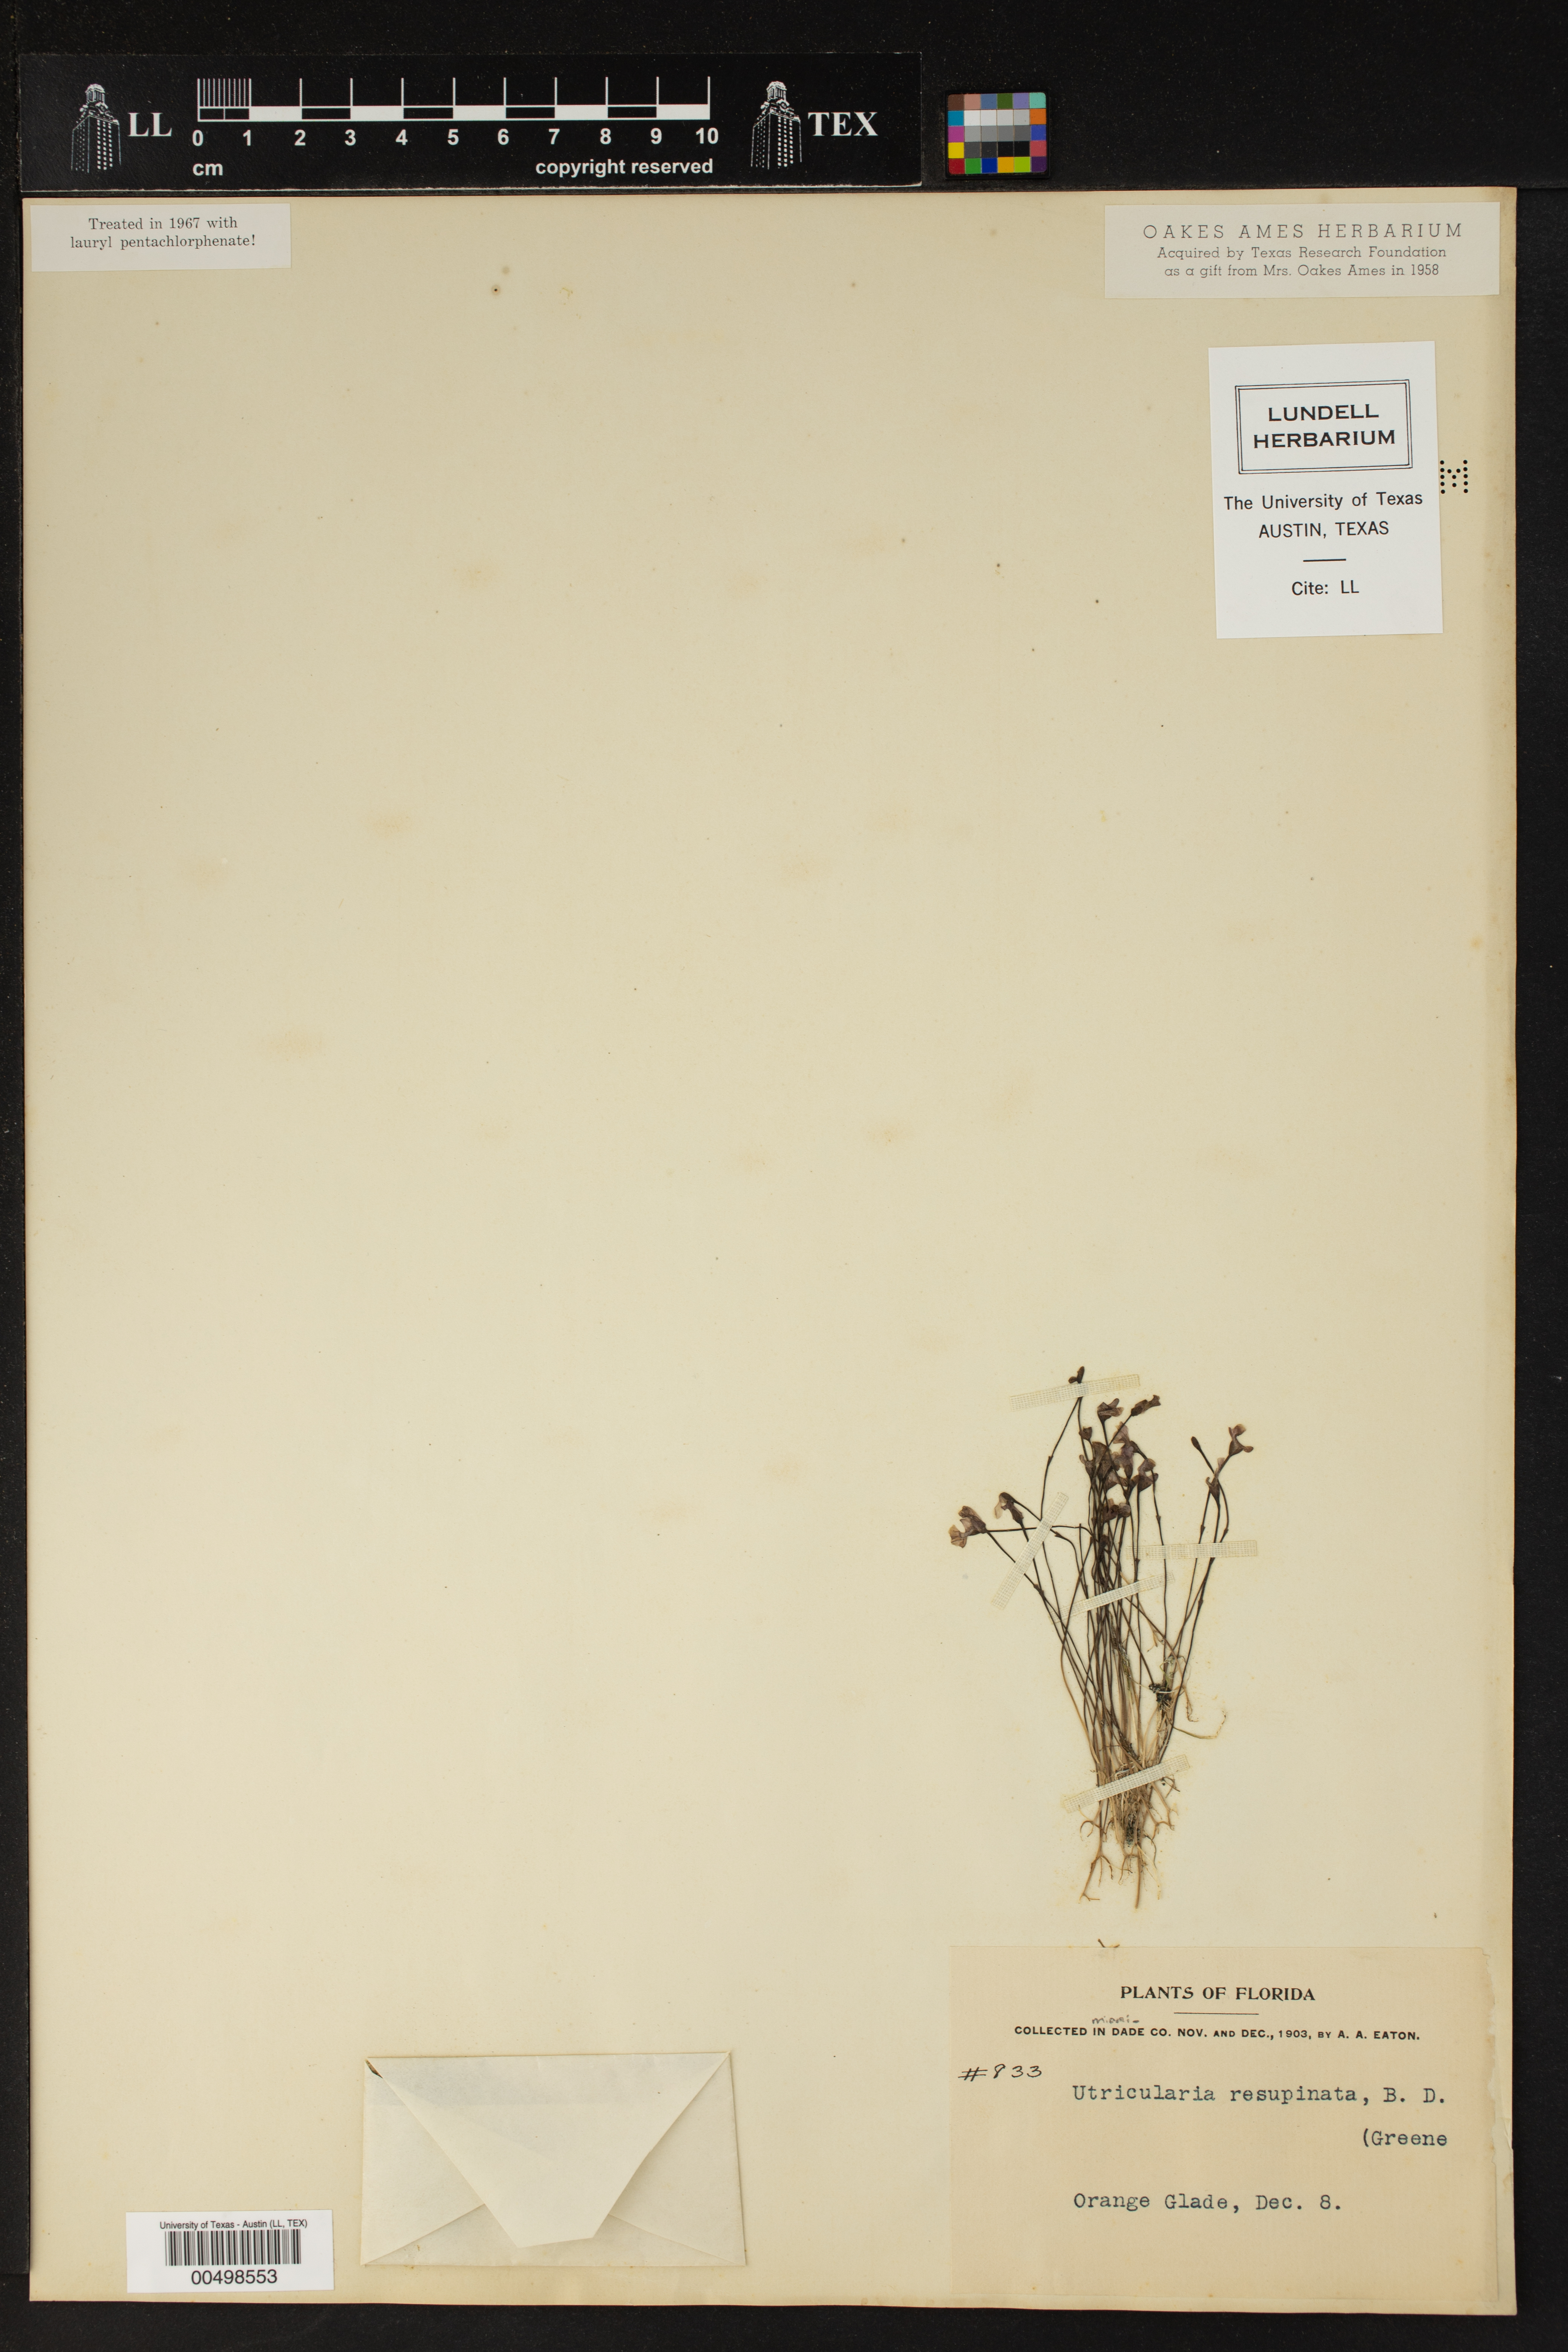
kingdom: Plantae
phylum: Tracheophyta
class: Magnoliopsida
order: Lamiales
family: Lentibulariaceae
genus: Utricularia
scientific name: Utricularia resupinata
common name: Northeastern bladderwort
